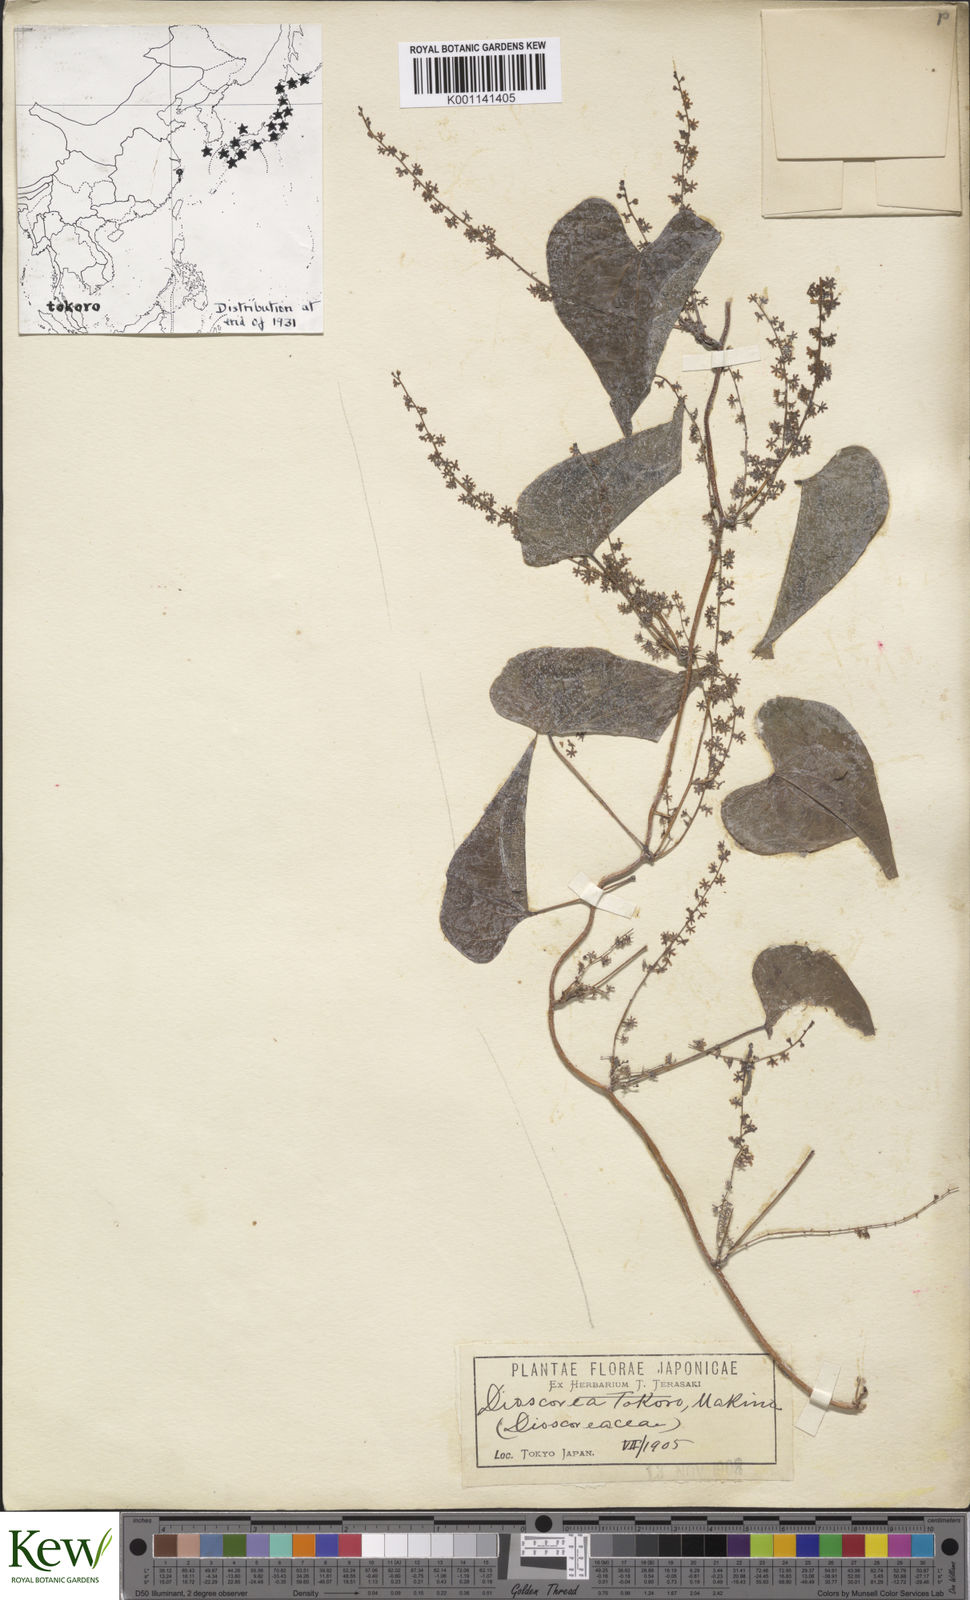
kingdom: Plantae
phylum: Tracheophyta
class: Liliopsida
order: Dioscoreales
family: Dioscoreaceae
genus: Dioscorea
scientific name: Dioscorea tokoro
